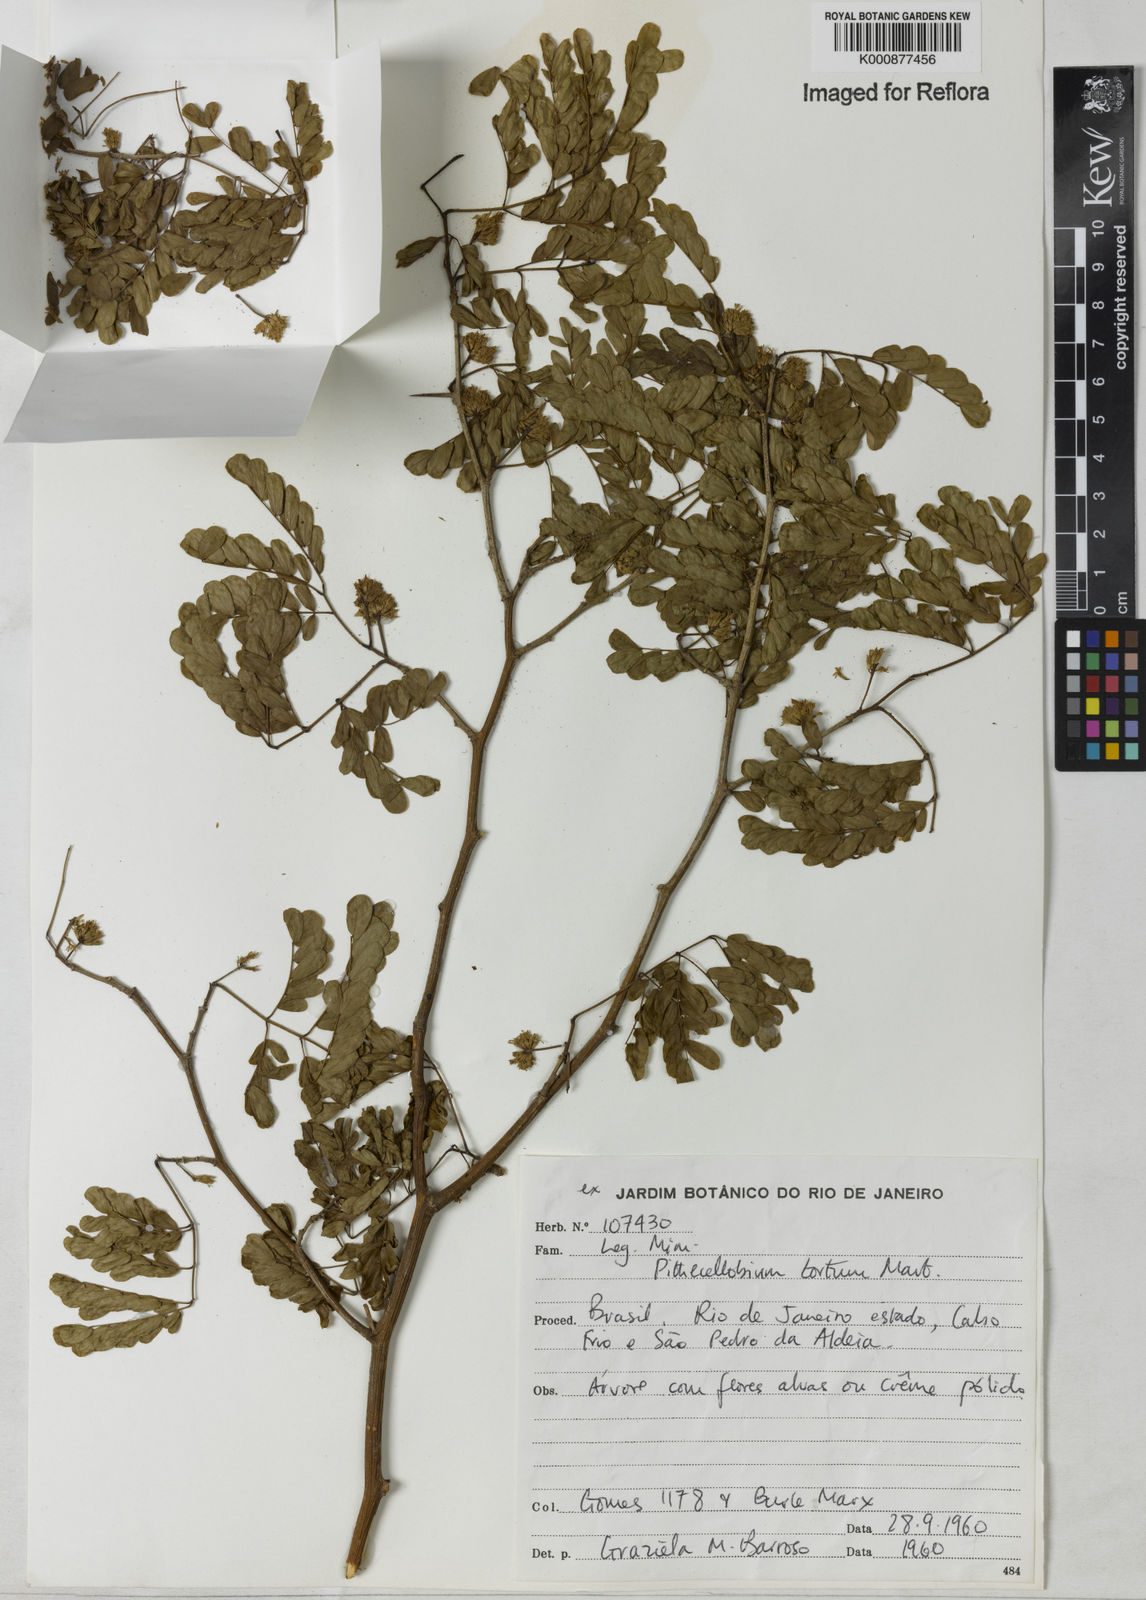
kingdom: Plantae
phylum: Tracheophyta
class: Magnoliopsida
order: Fabales
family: Fabaceae
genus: Chloroleucon
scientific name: Chloroleucon tortum
